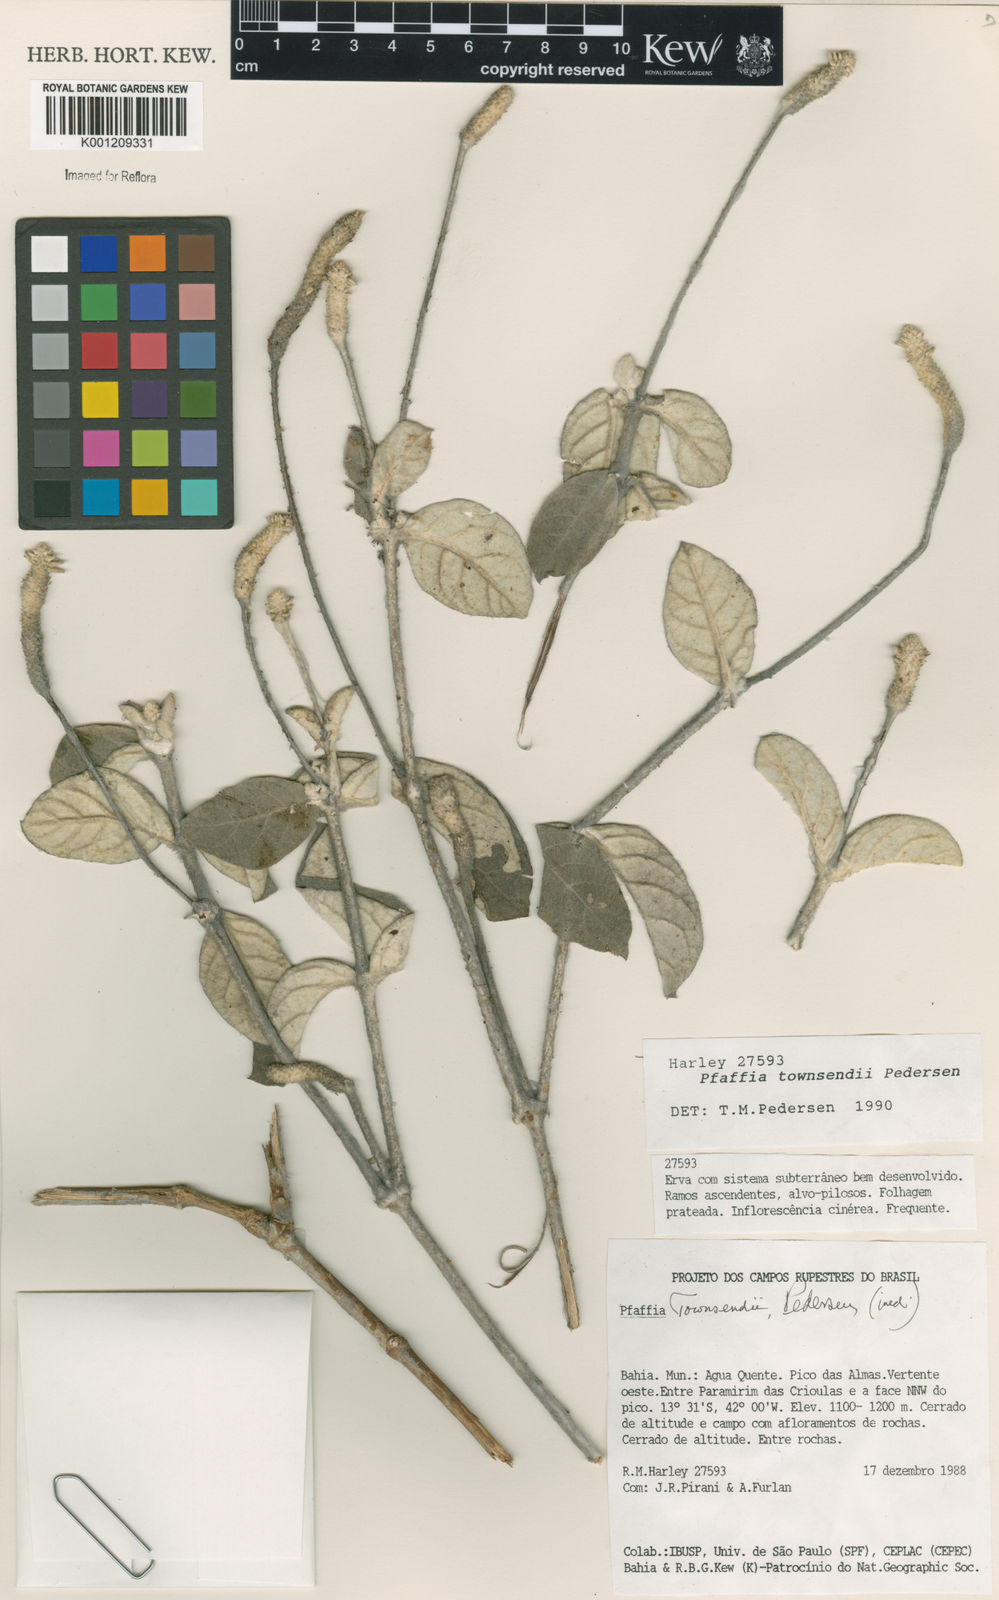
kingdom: Plantae
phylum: Tracheophyta
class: Magnoliopsida
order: Caryophyllales
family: Amaranthaceae
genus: Pfaffia
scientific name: Pfaffia townsendii
